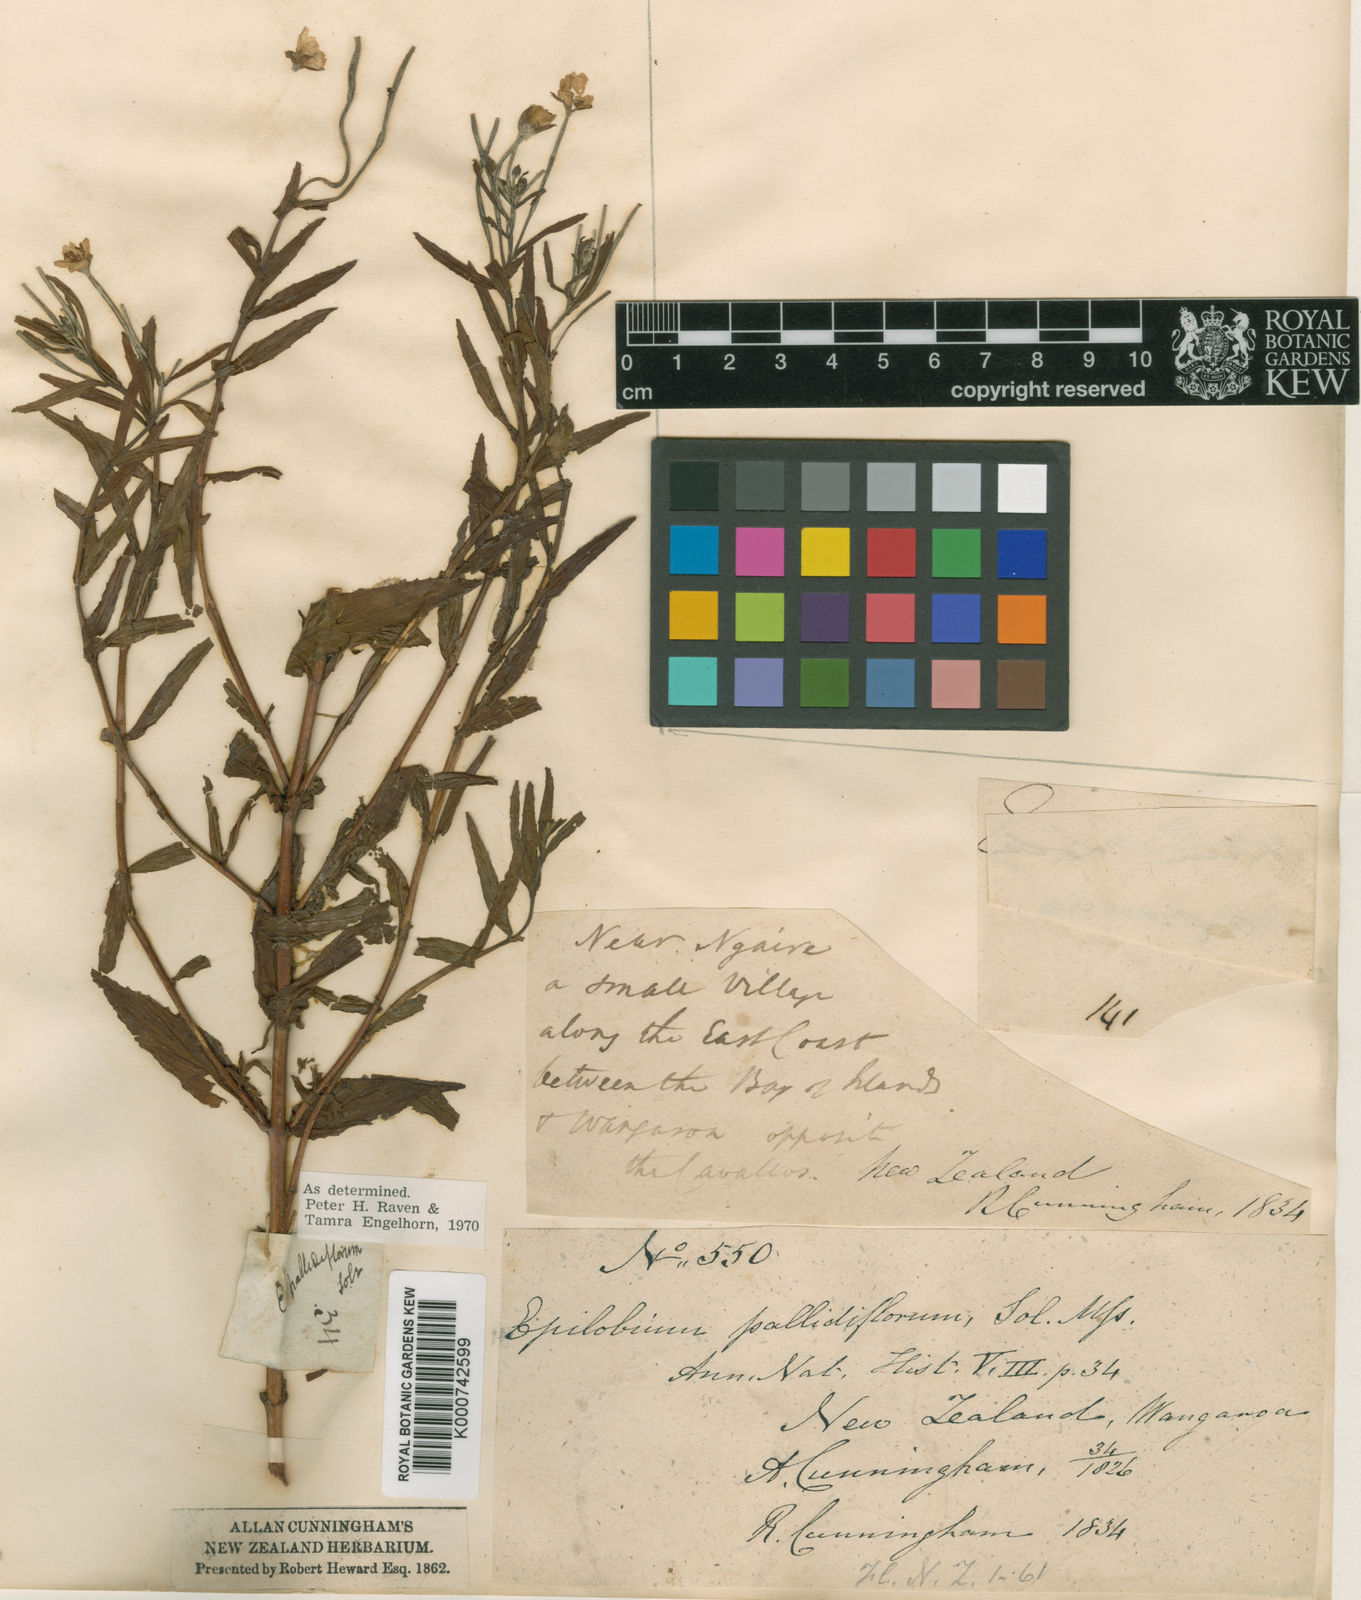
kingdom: Plantae
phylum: Tracheophyta
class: Magnoliopsida
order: Myrtales
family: Onagraceae
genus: Epilobium
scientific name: Epilobium pallidiflorum
